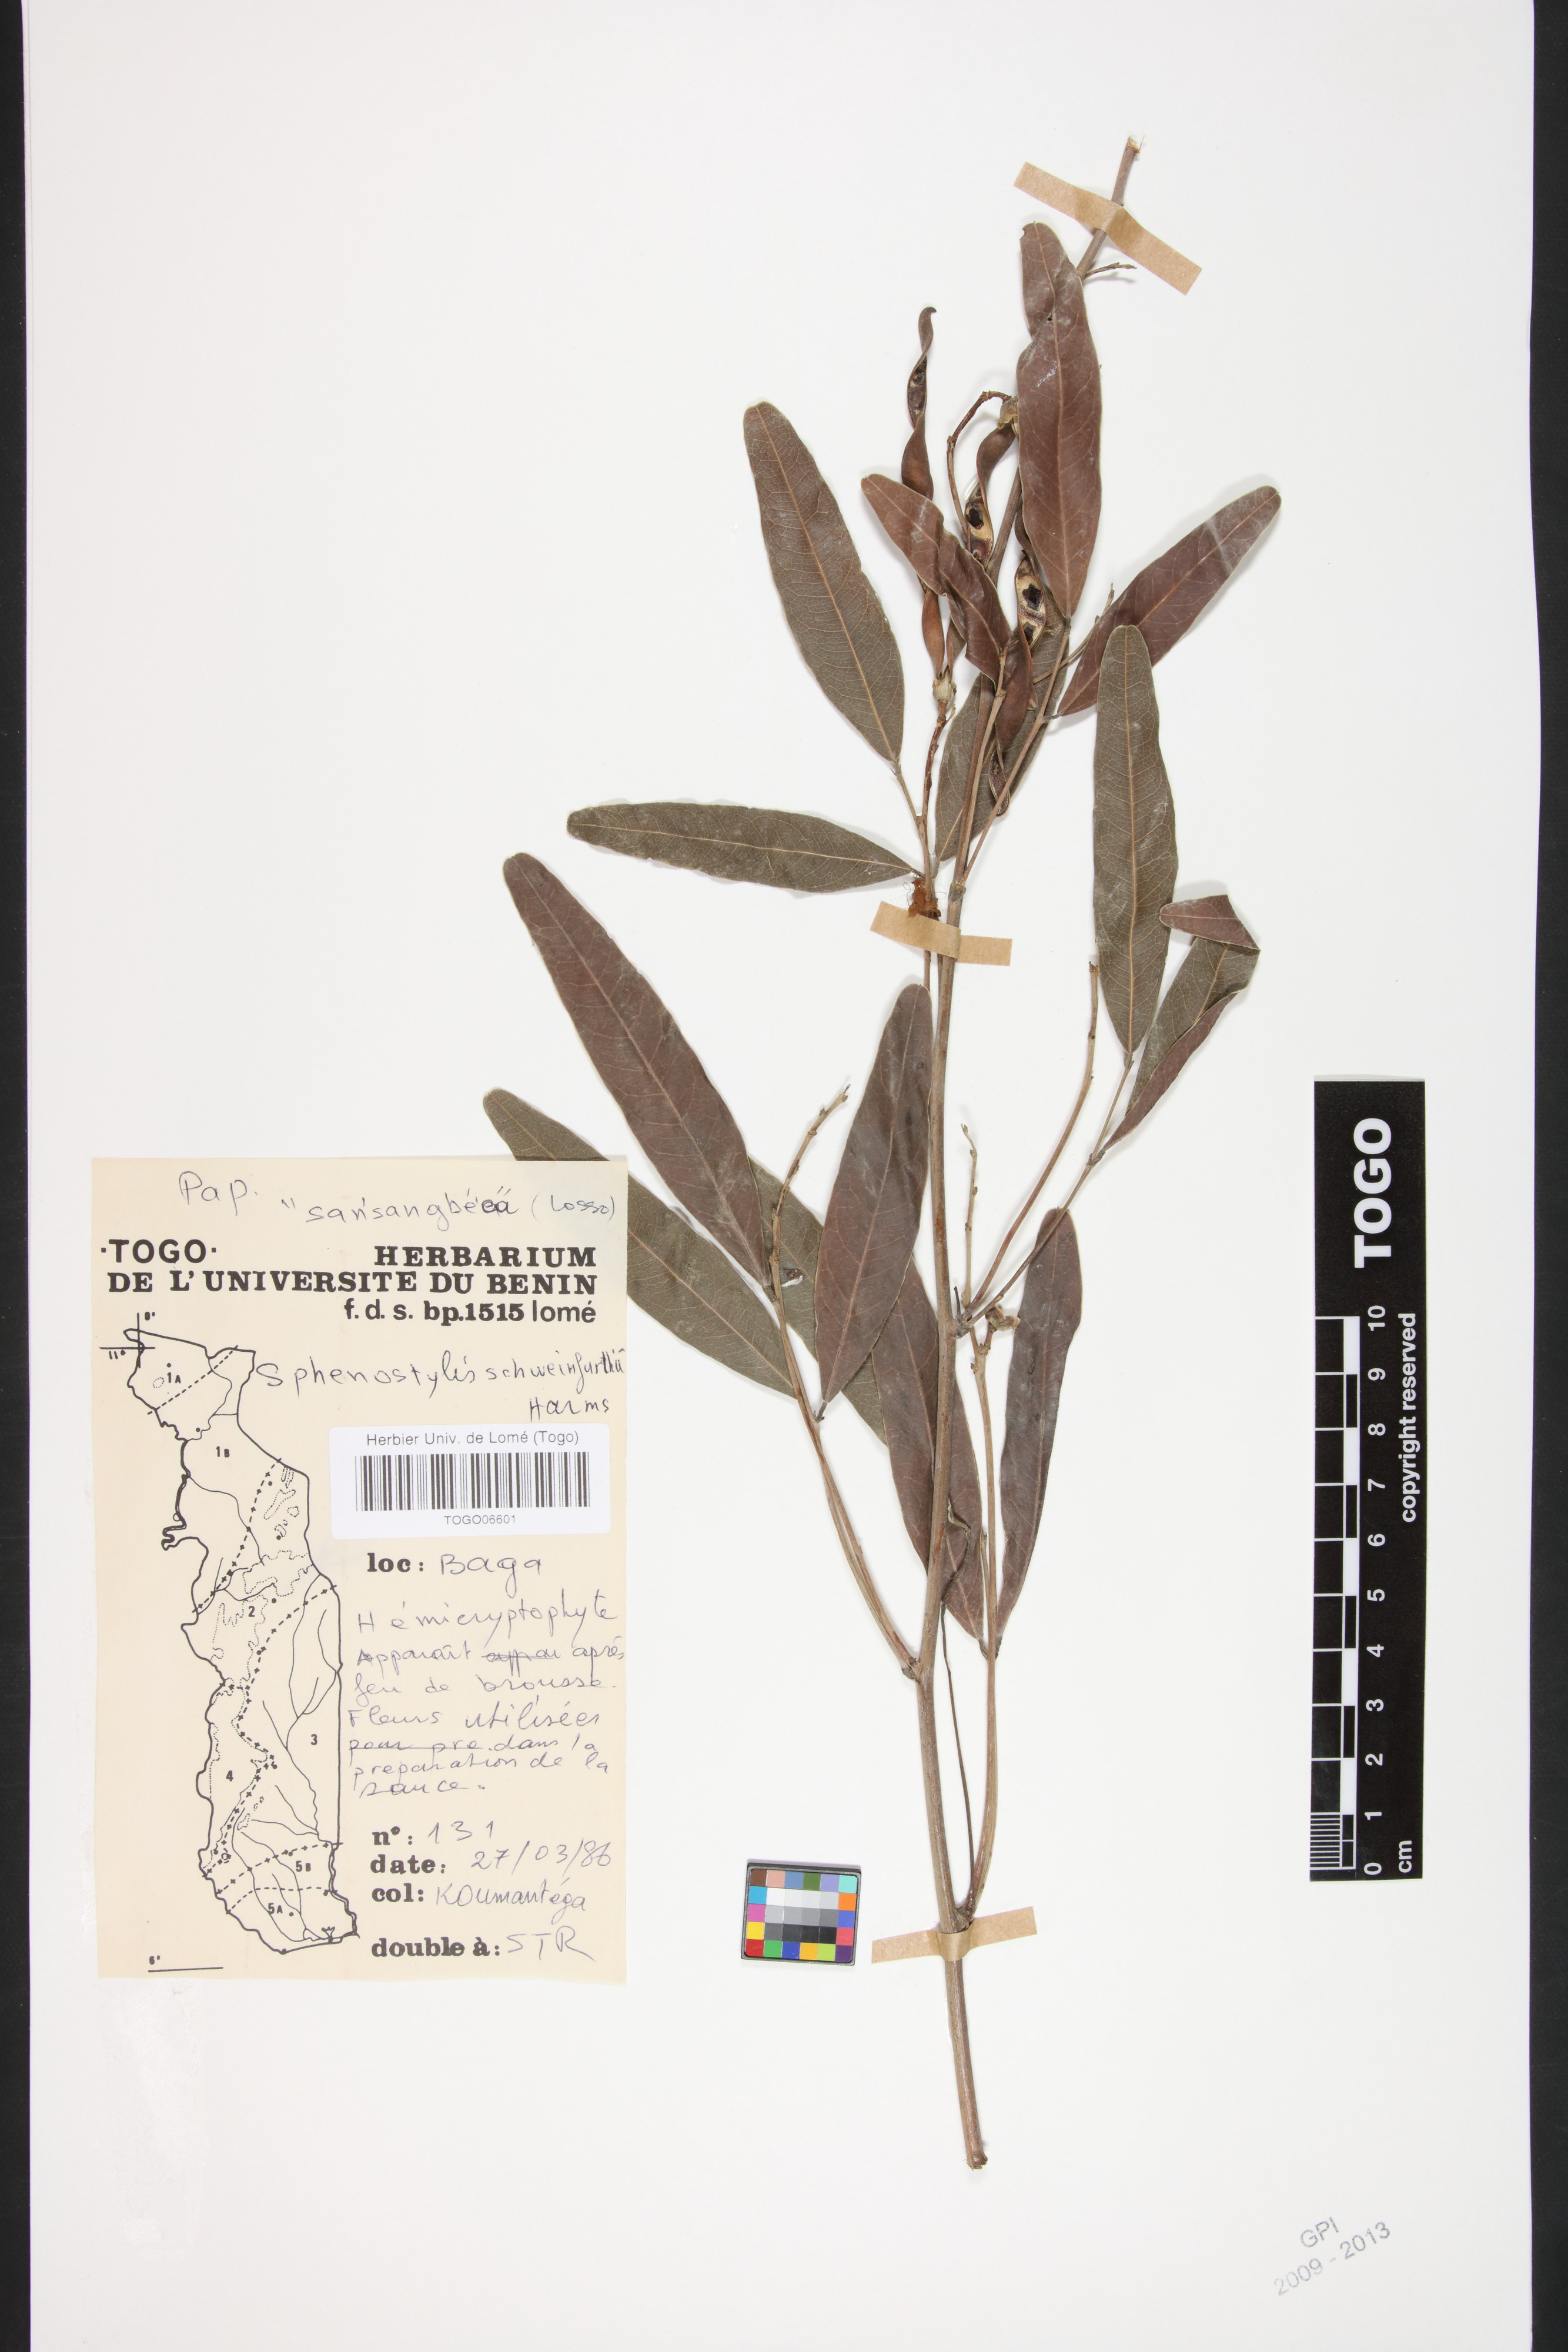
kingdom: Plantae
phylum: Tracheophyta
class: Magnoliopsida
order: Fabales
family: Fabaceae
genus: Sphenostylis
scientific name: Sphenostylis schweinfurthii
